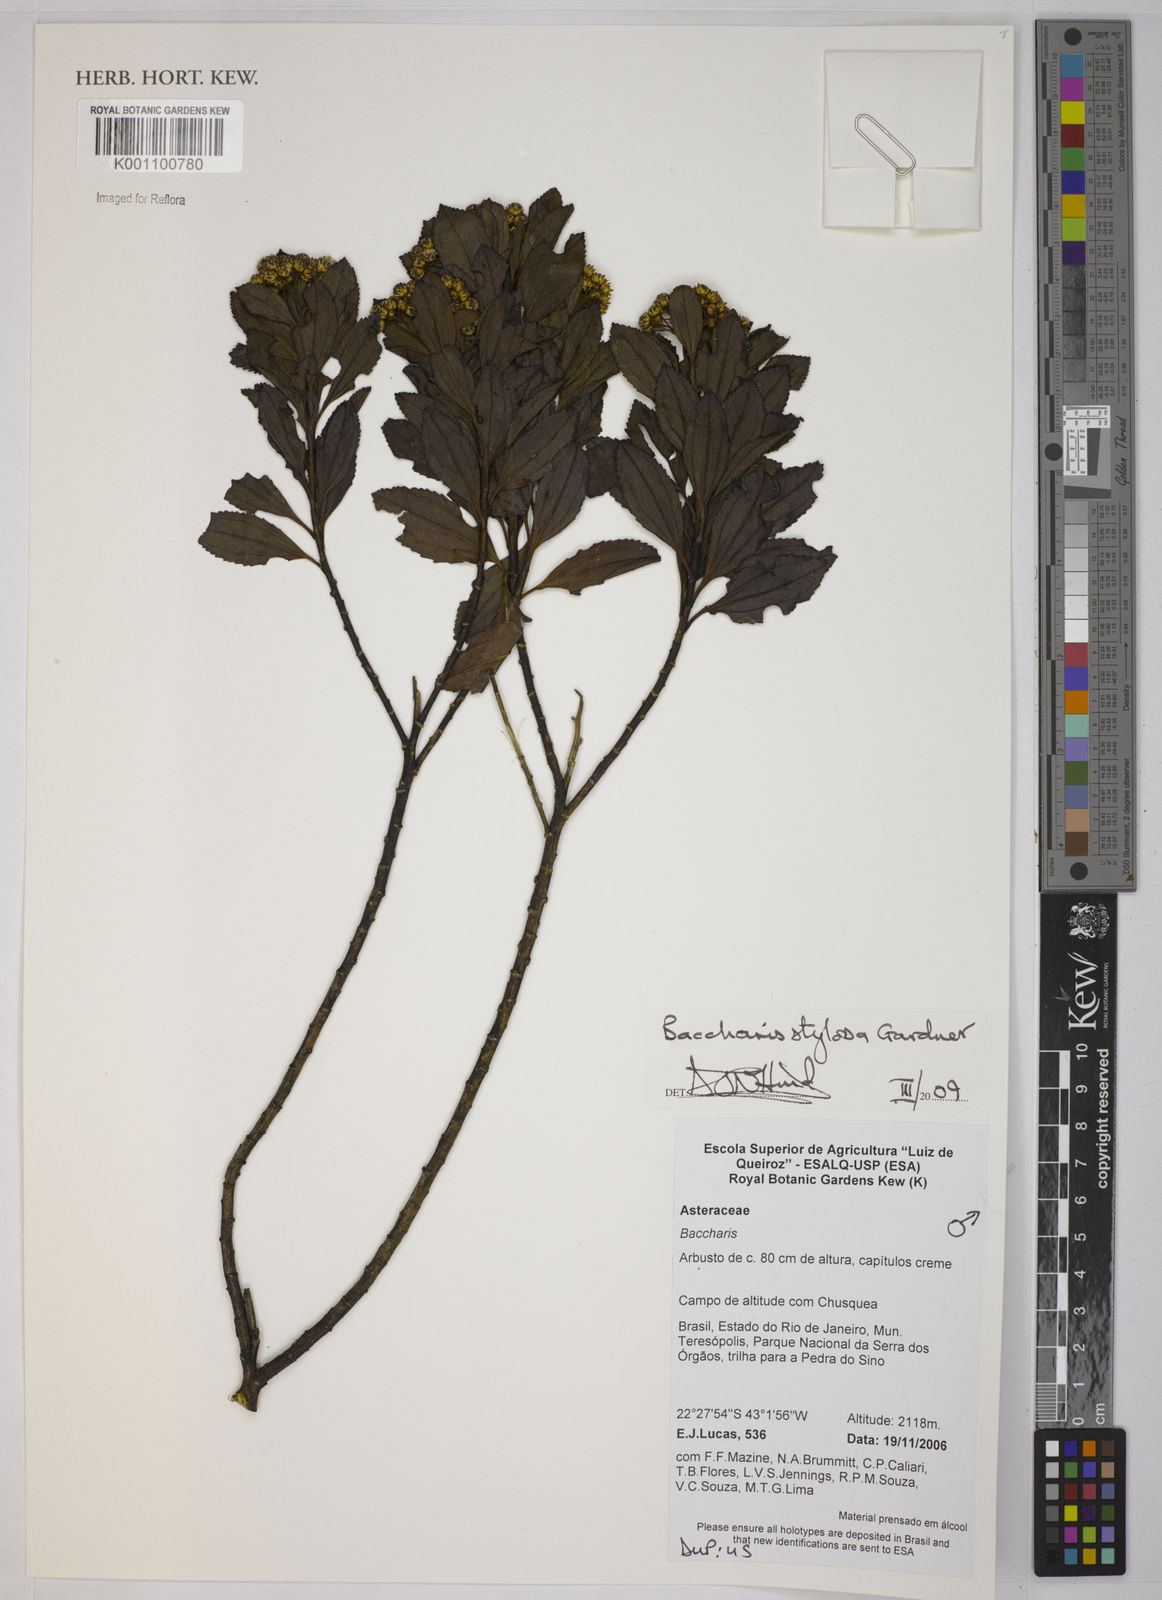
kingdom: Plantae
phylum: Tracheophyta
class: Magnoliopsida
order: Asterales
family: Asteraceae
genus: Baccharis
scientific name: Baccharis stylosa
